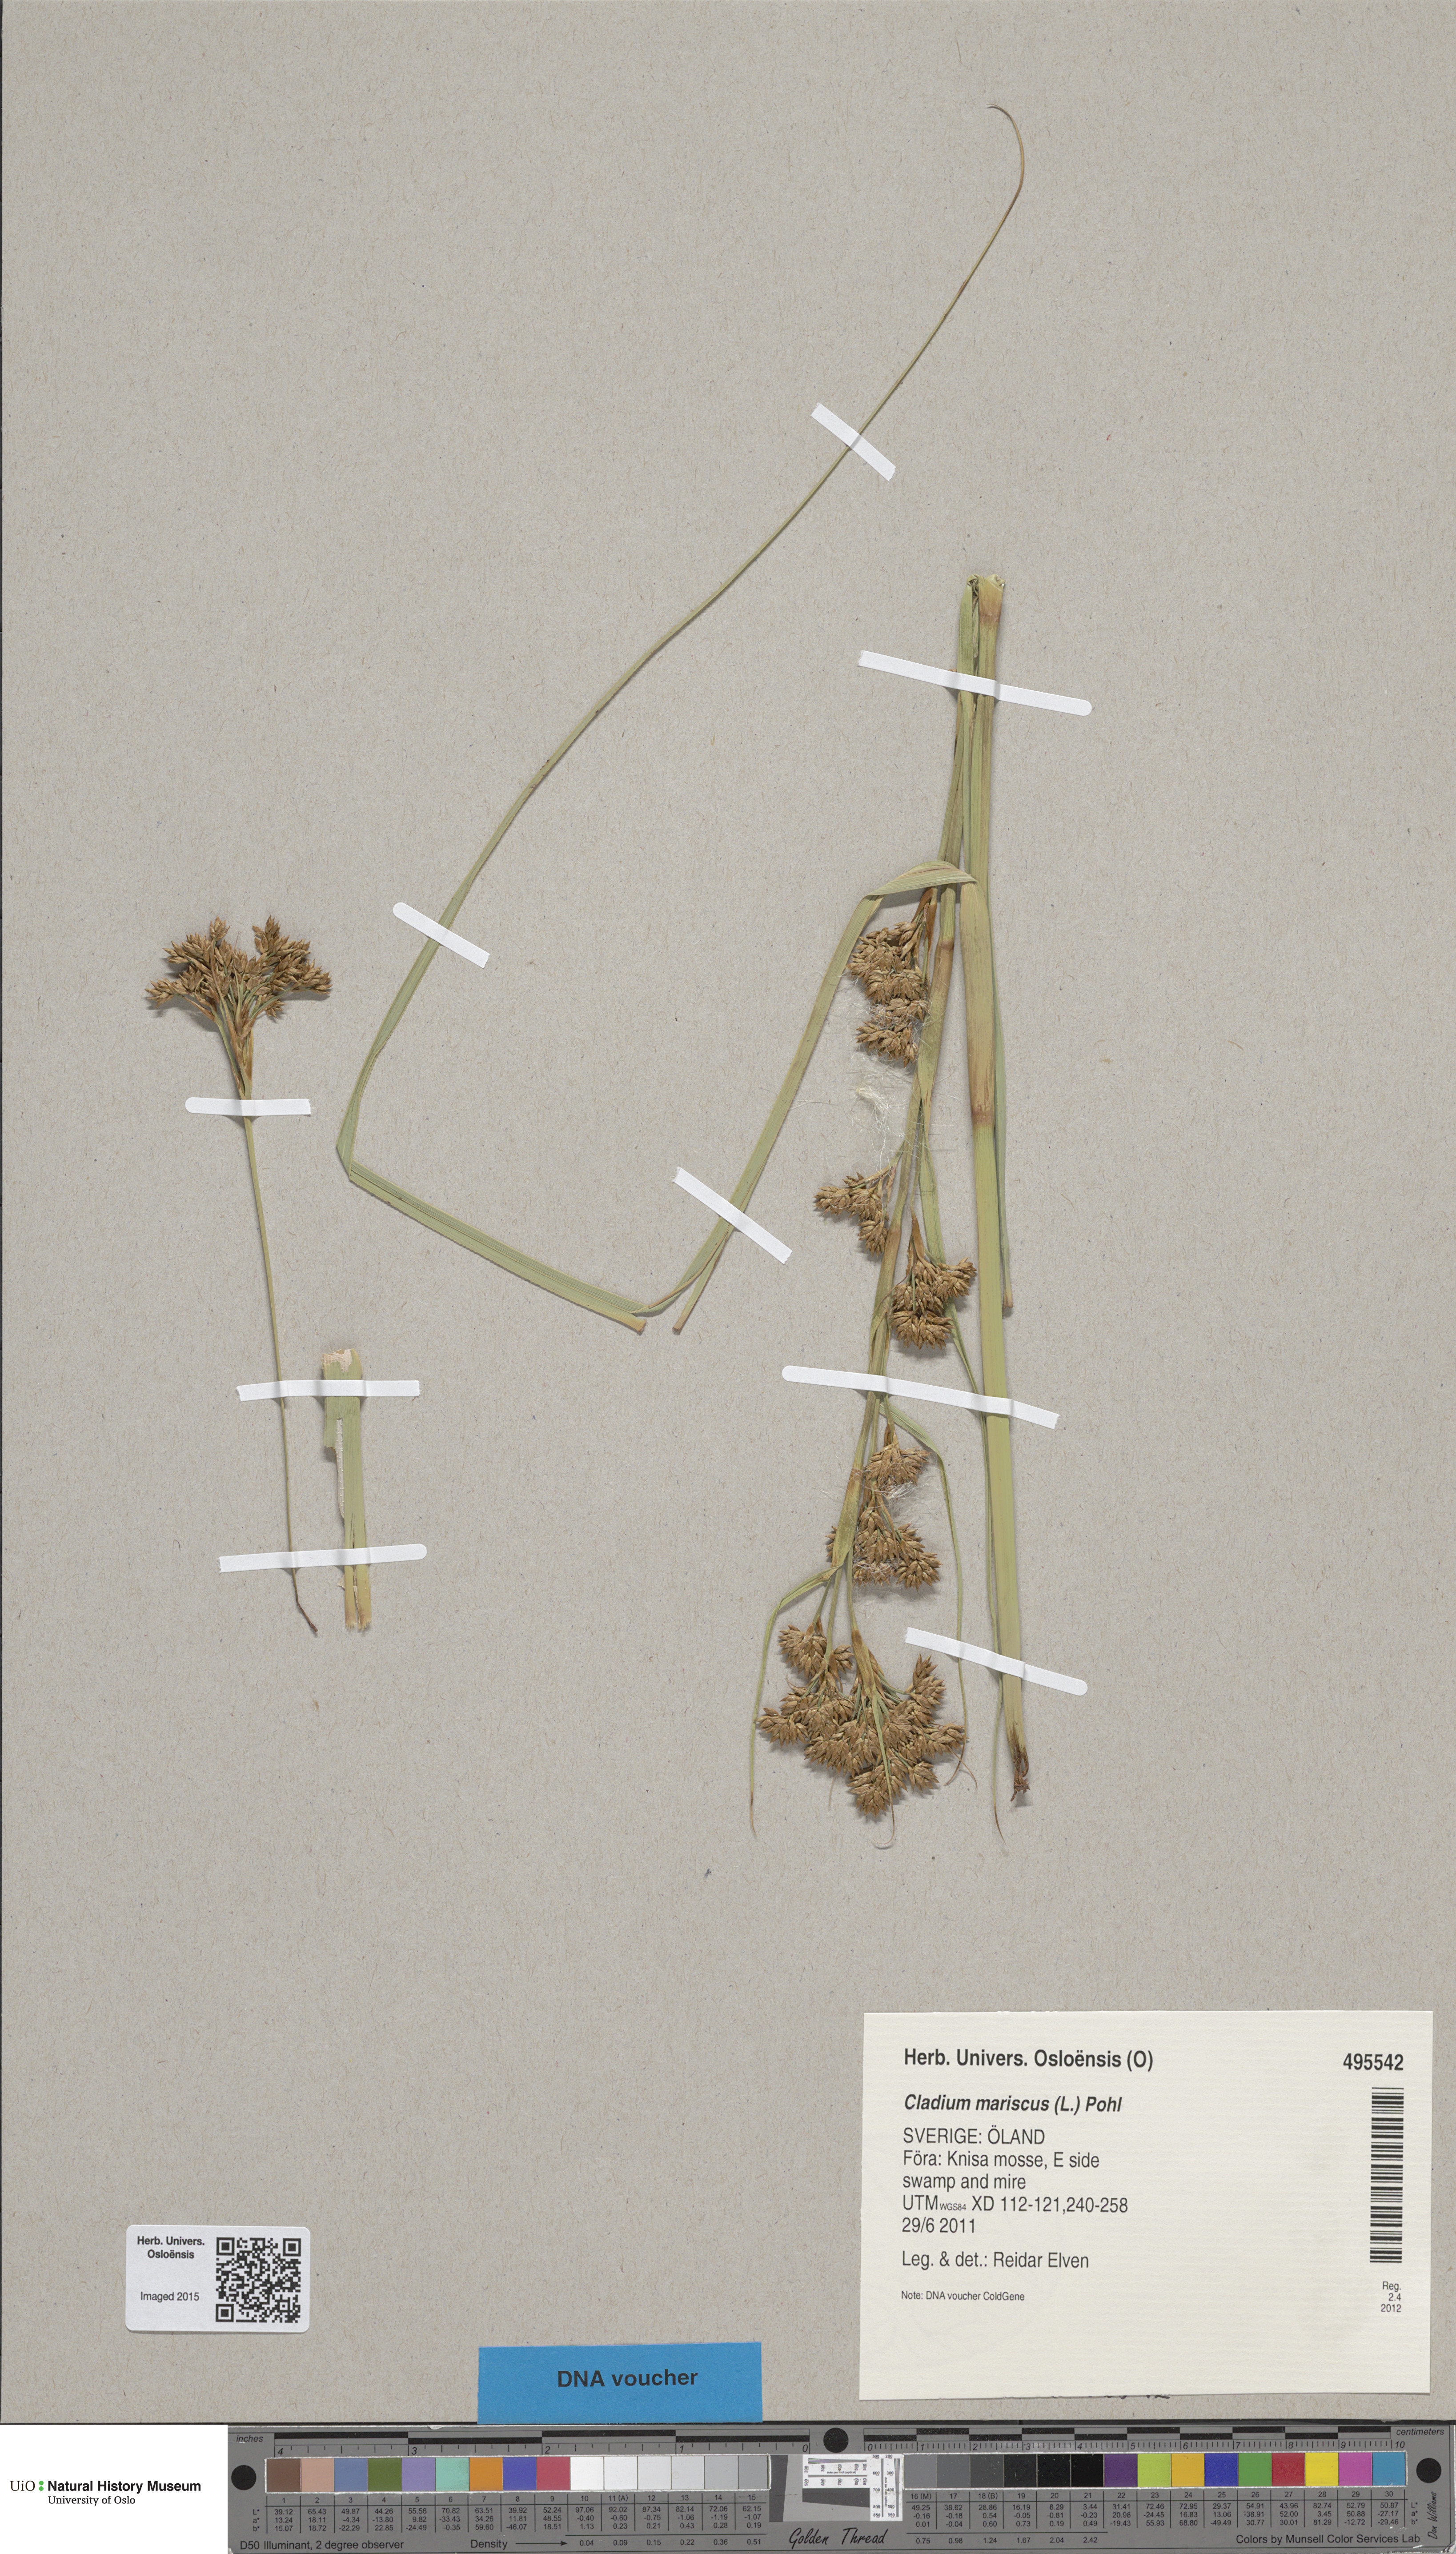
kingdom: Plantae
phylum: Tracheophyta
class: Liliopsida
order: Poales
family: Cyperaceae
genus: Cladium
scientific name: Cladium mariscus
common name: Great fen-sedge
